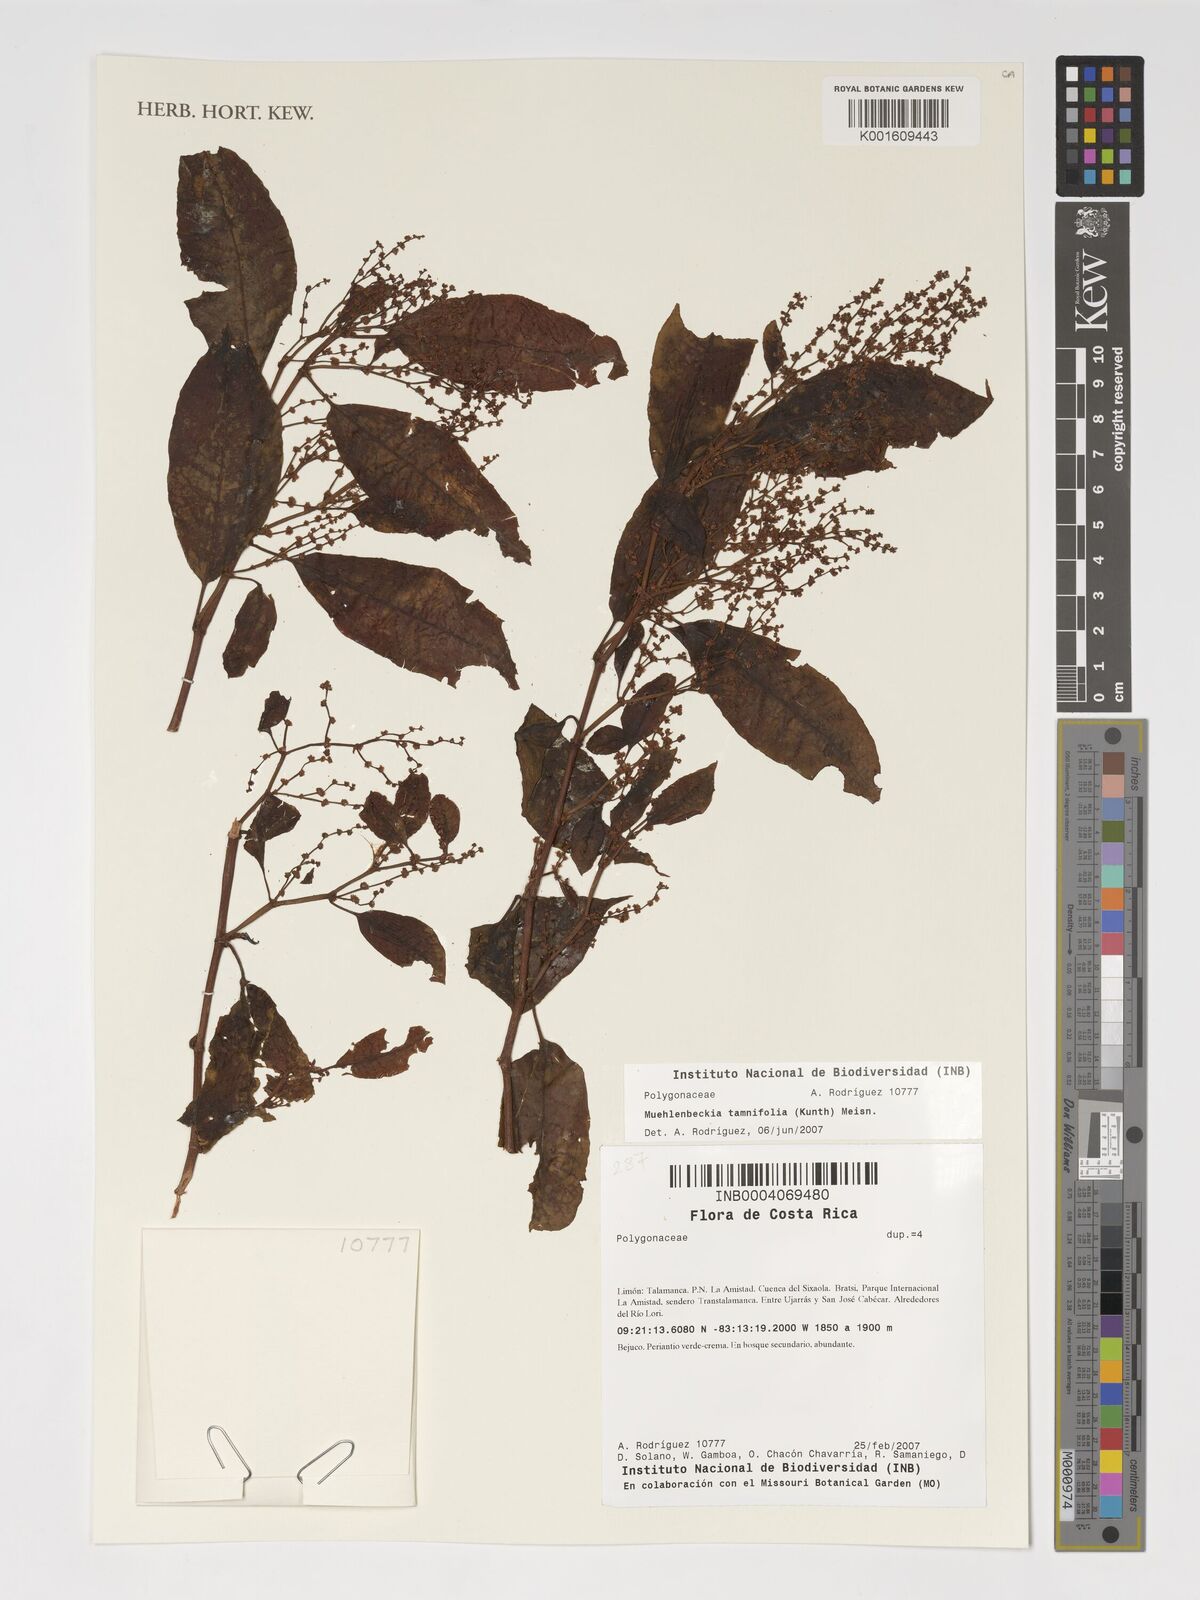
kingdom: Plantae
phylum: Tracheophyta
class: Magnoliopsida
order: Caryophyllales
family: Polygonaceae
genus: Muehlenbeckia
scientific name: Muehlenbeckia tamnifolia
